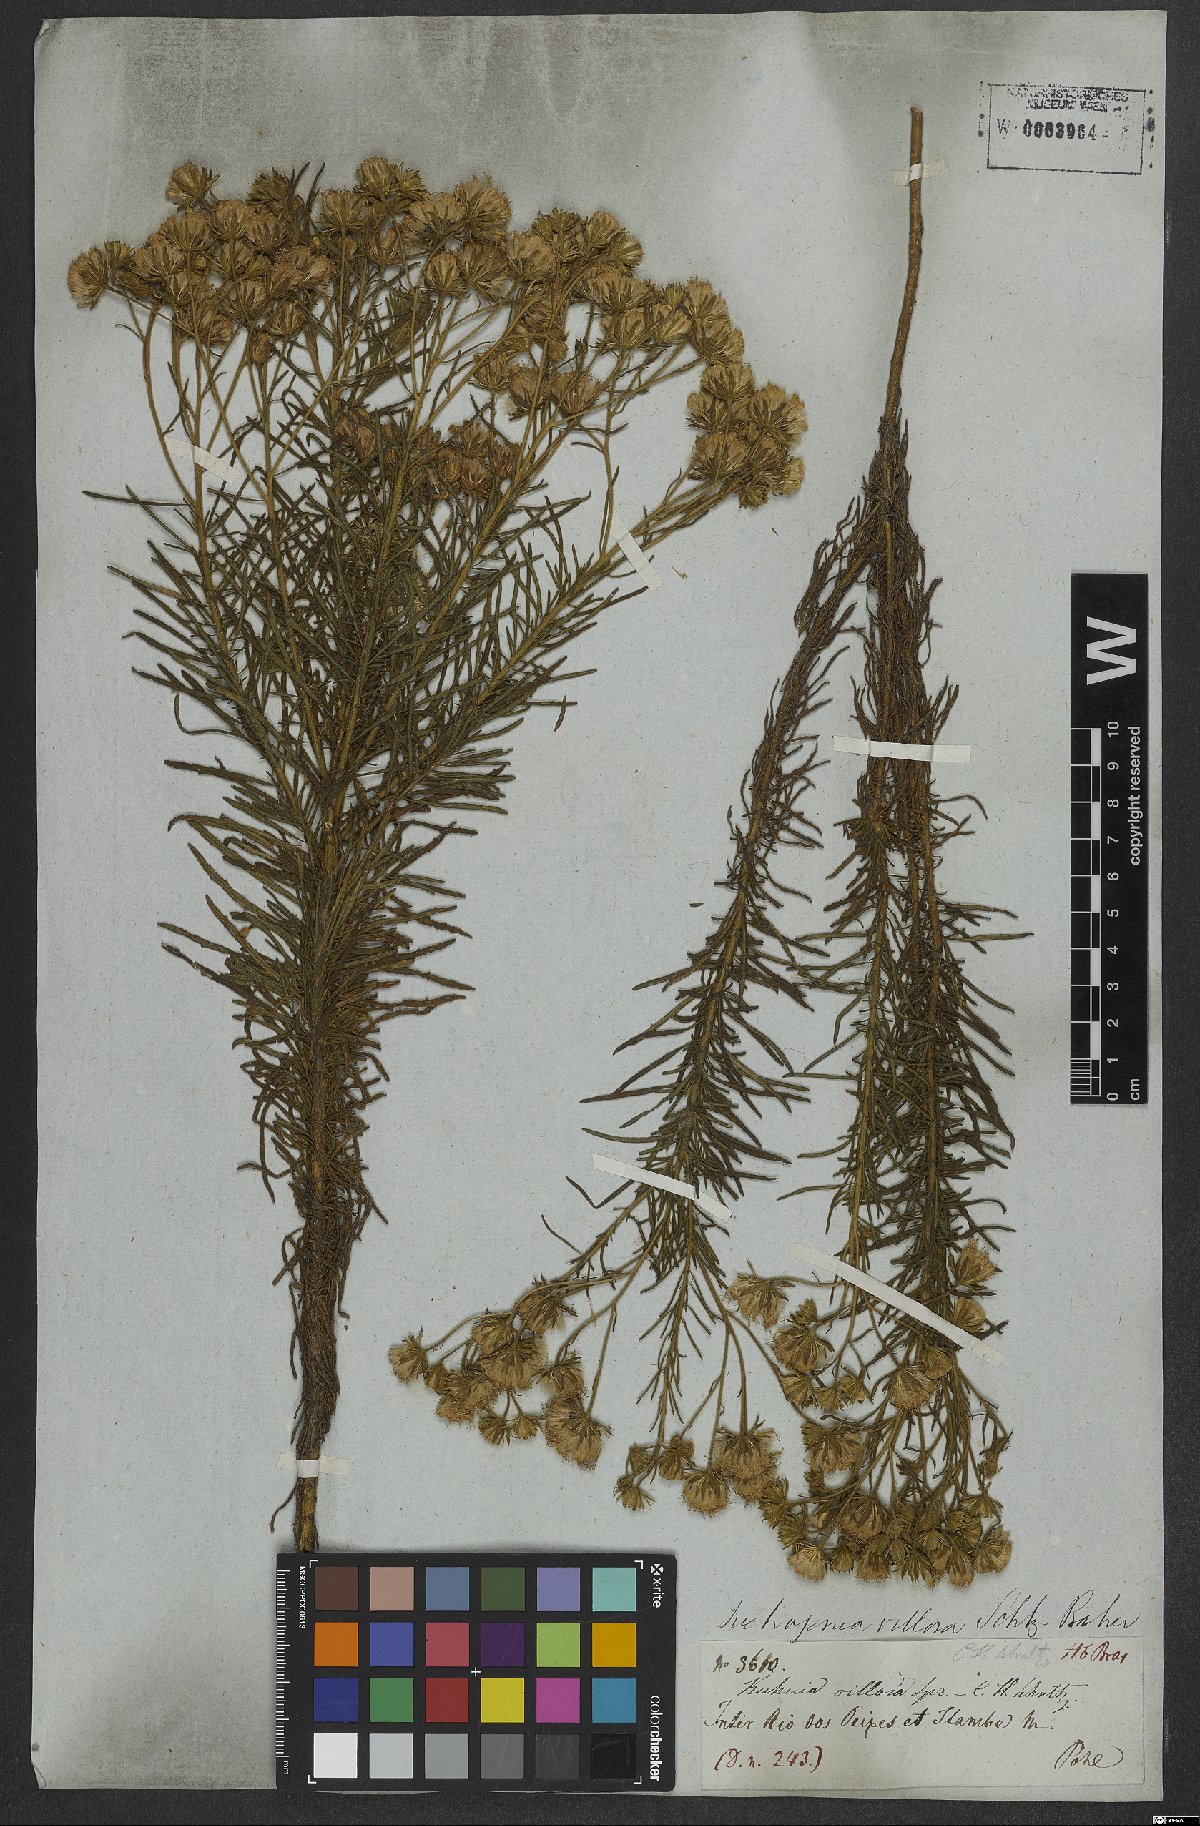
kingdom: Plantae
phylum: Tracheophyta
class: Magnoliopsida
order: Asterales
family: Asteraceae
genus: Trichogonia
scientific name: Trichogonia villosa
